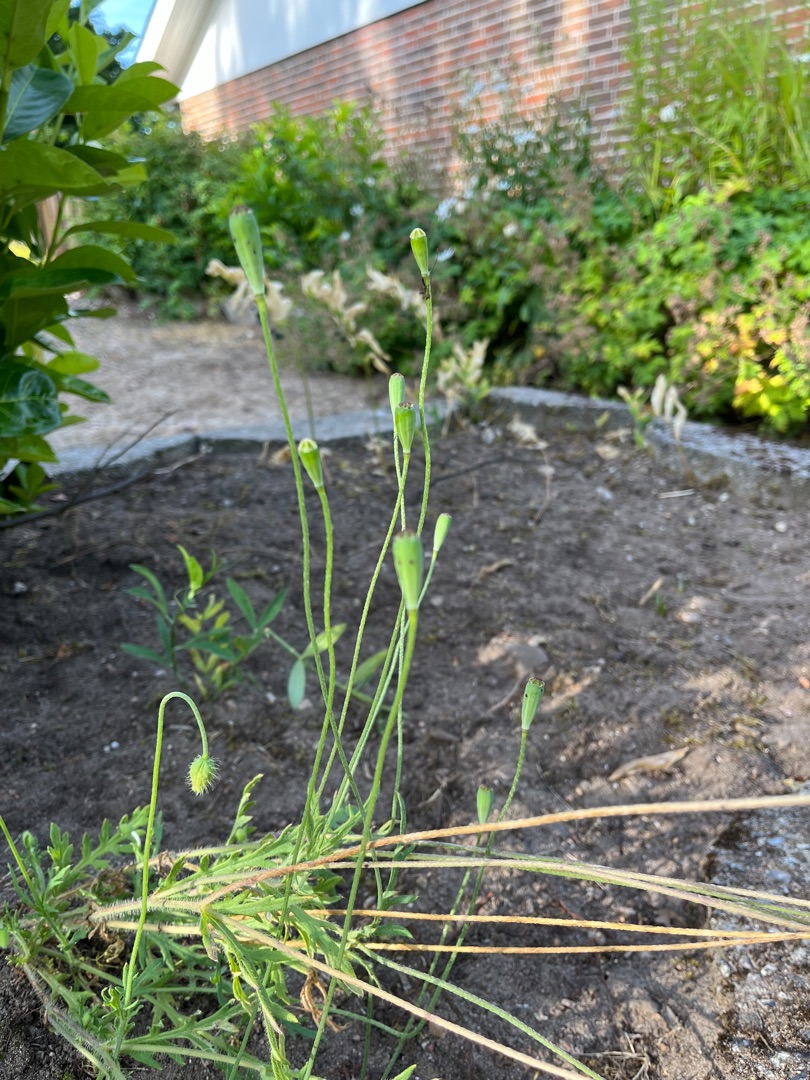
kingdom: Plantae
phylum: Tracheophyta
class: Magnoliopsida
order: Ranunculales
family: Papaveraceae
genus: Papaver
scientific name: Papaver dubium
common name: Gærde-valmue
